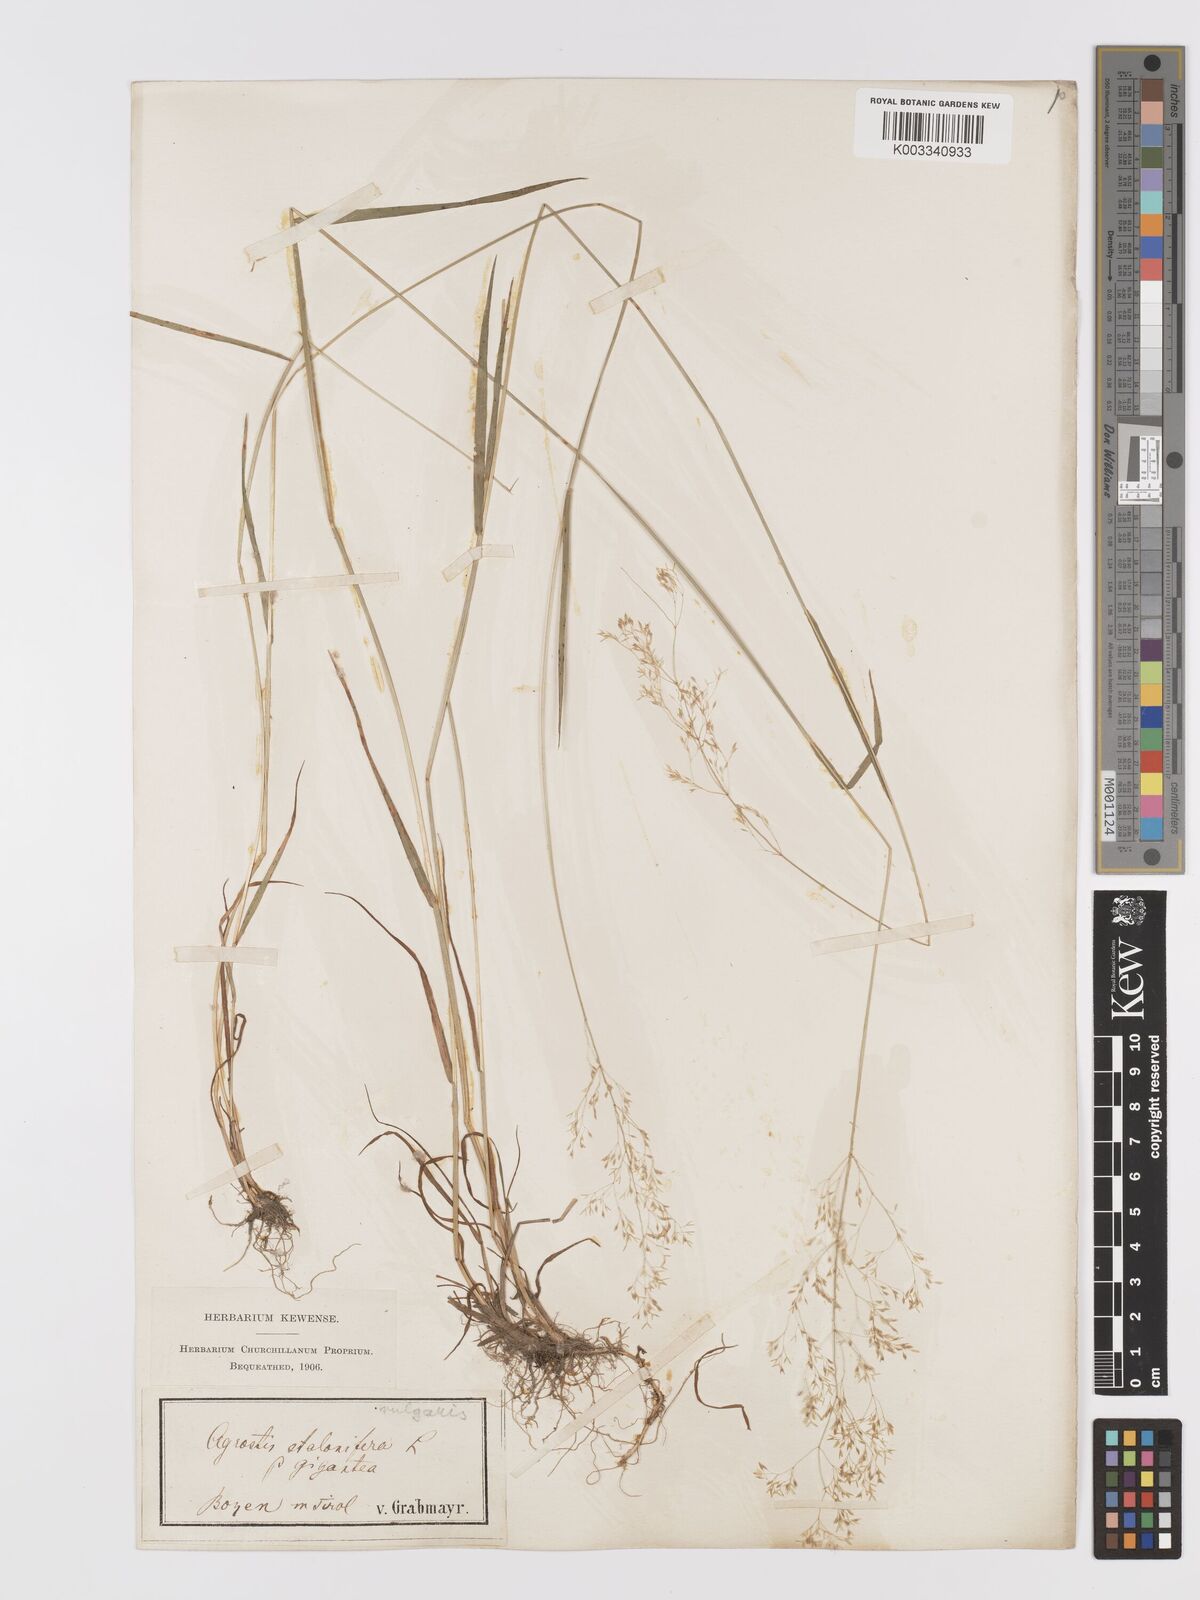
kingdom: Plantae
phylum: Tracheophyta
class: Liliopsida
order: Poales
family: Poaceae
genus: Agrostis
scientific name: Agrostis capillaris
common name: Colonial bentgrass
